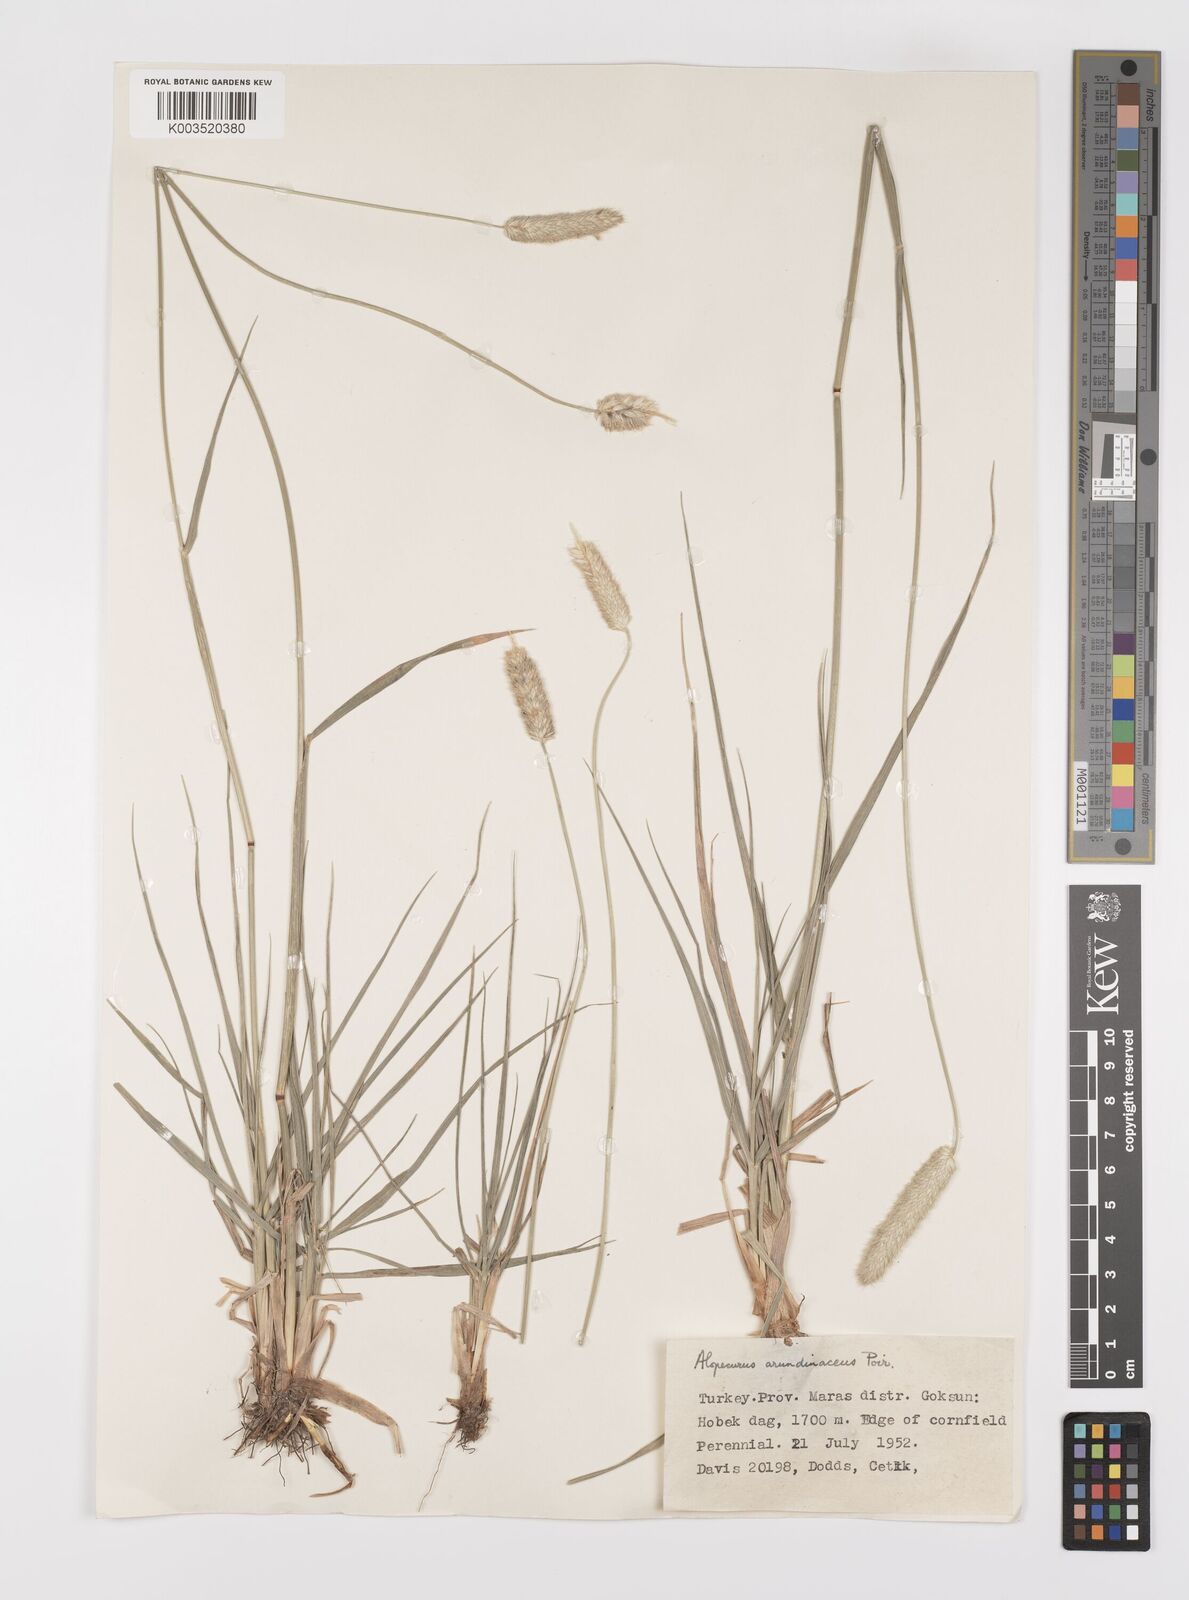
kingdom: Plantae
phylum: Tracheophyta
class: Liliopsida
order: Poales
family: Poaceae
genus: Alopecurus
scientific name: Alopecurus arundinaceus
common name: Creeping meadow foxtail
